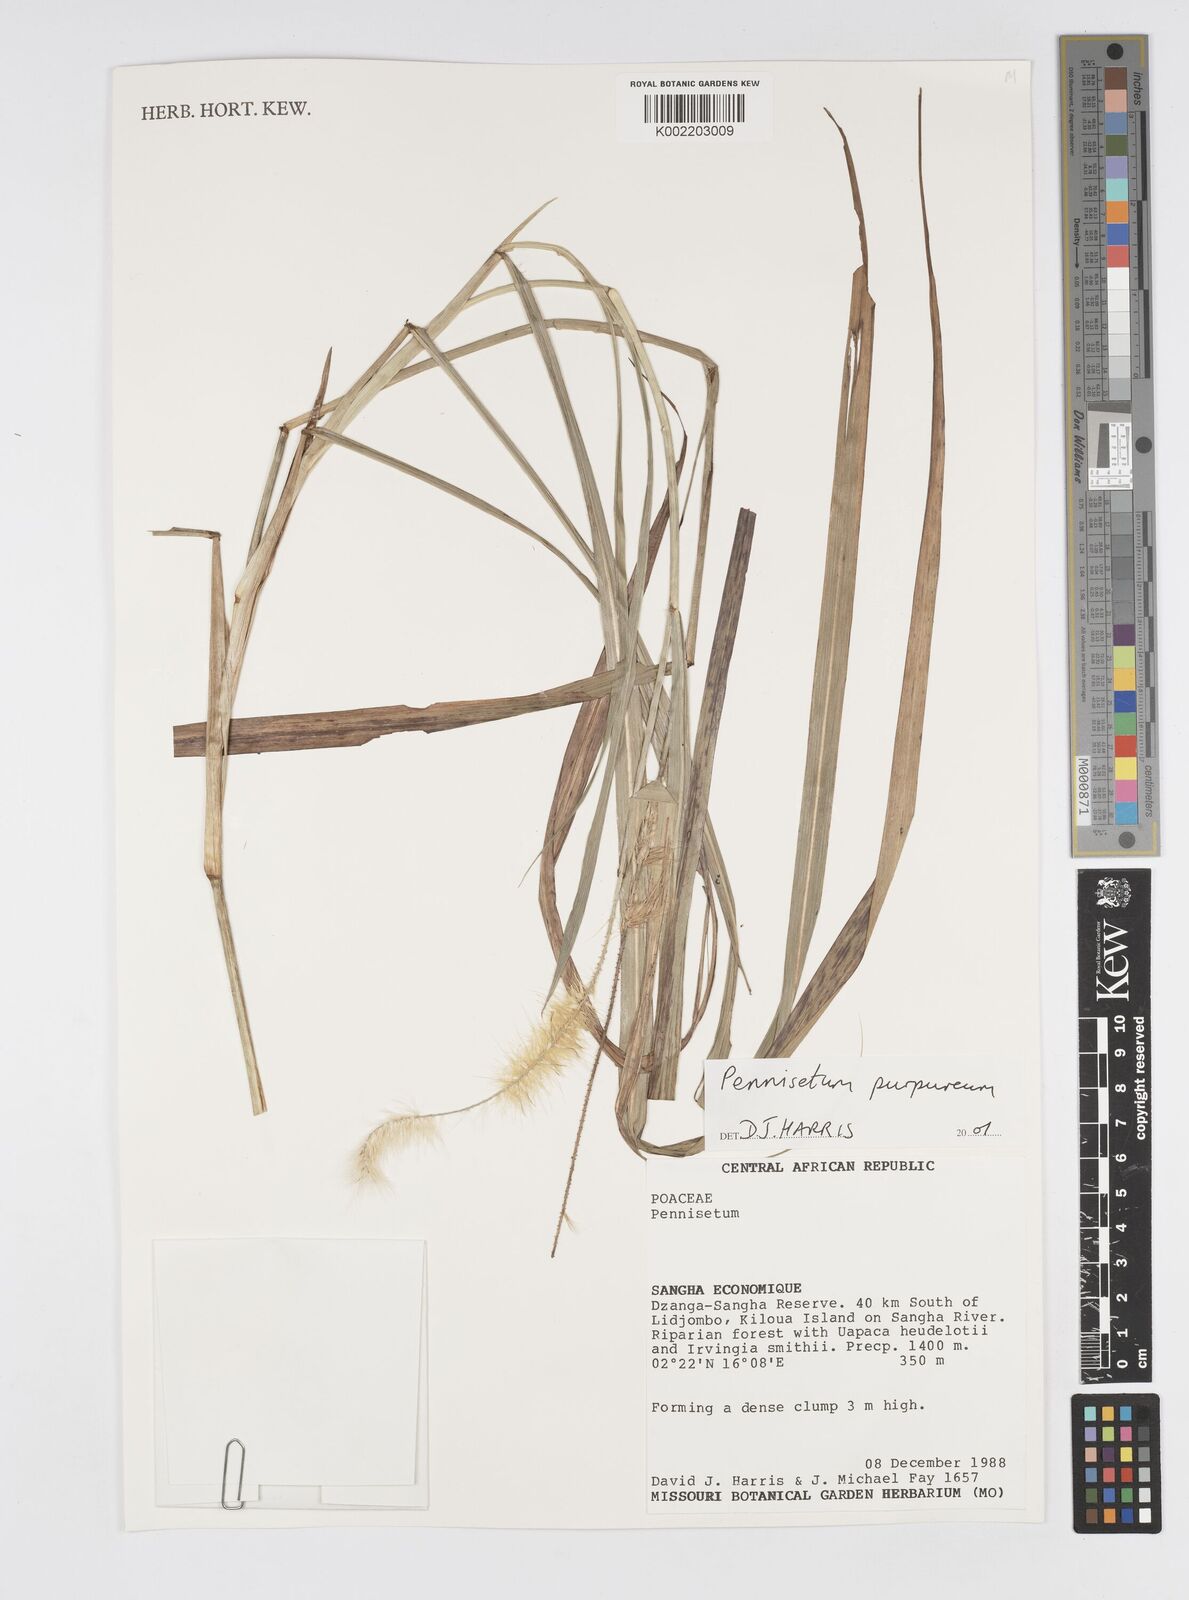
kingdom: Plantae
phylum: Tracheophyta
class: Liliopsida
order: Poales
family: Poaceae
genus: Cenchrus
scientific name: Cenchrus purpureus
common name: Elephant grass
